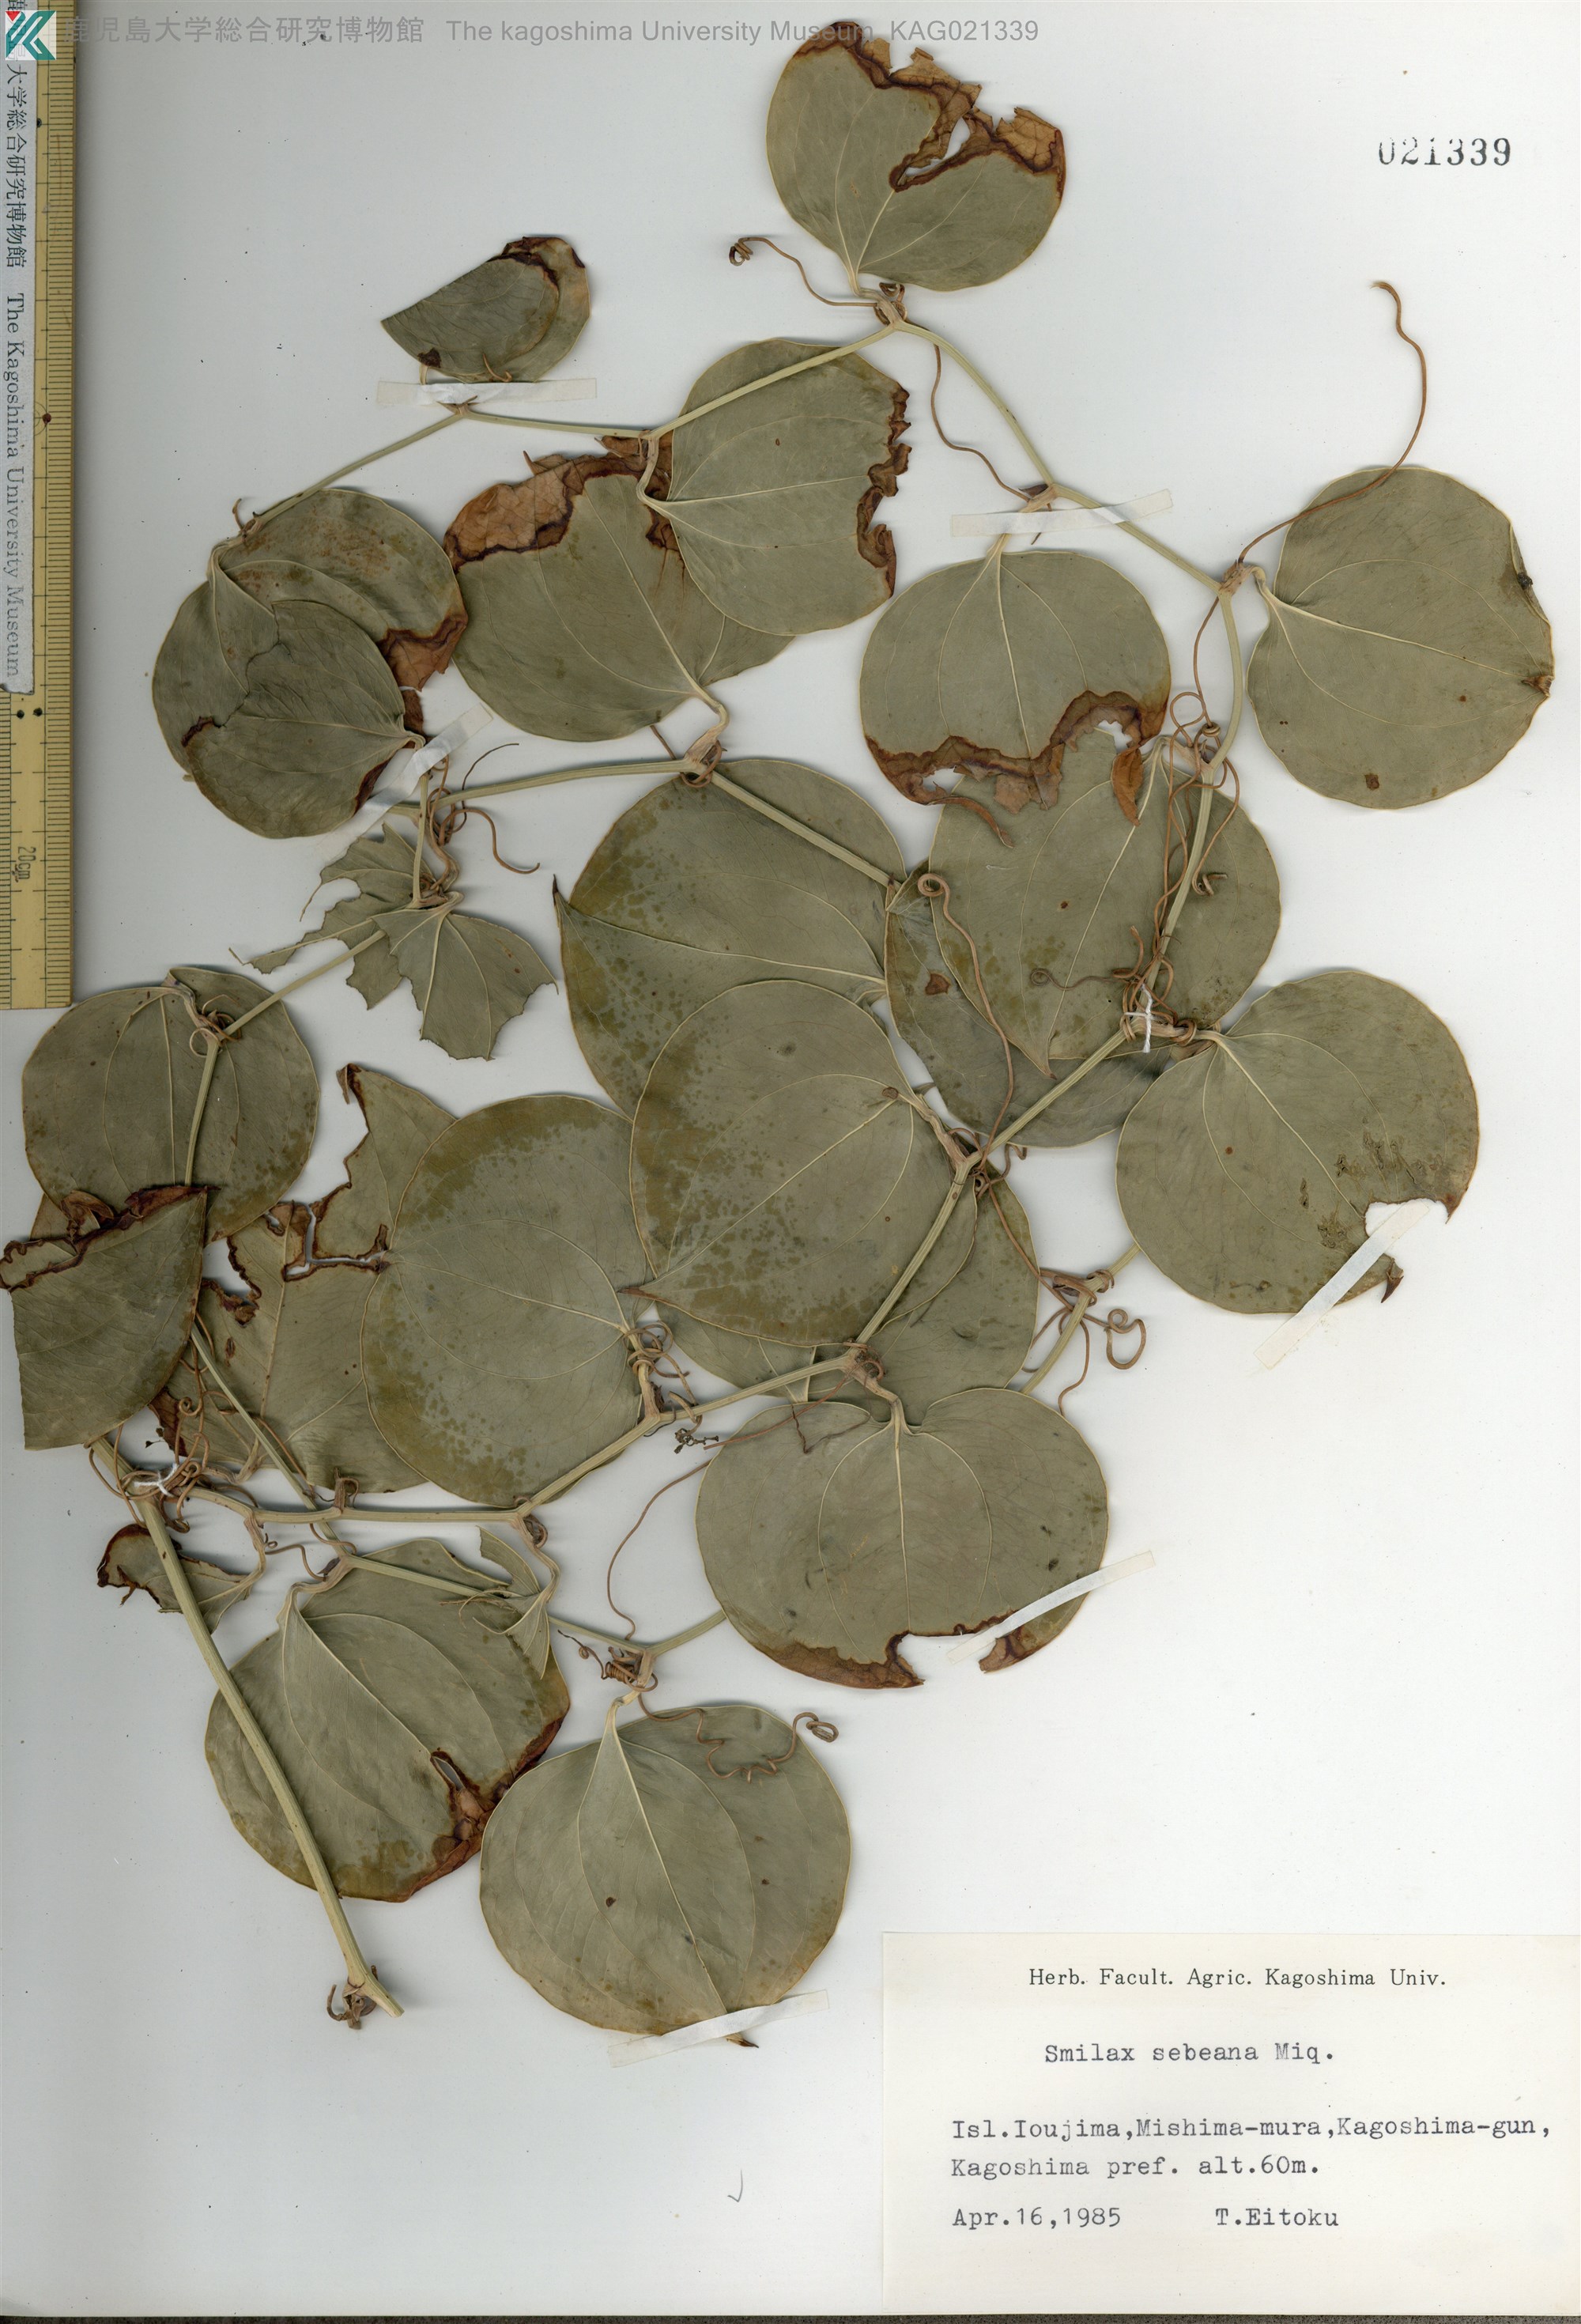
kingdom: Plantae
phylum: Tracheophyta
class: Liliopsida
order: Liliales
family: Smilacaceae
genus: Smilax
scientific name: Smilax sebeana
